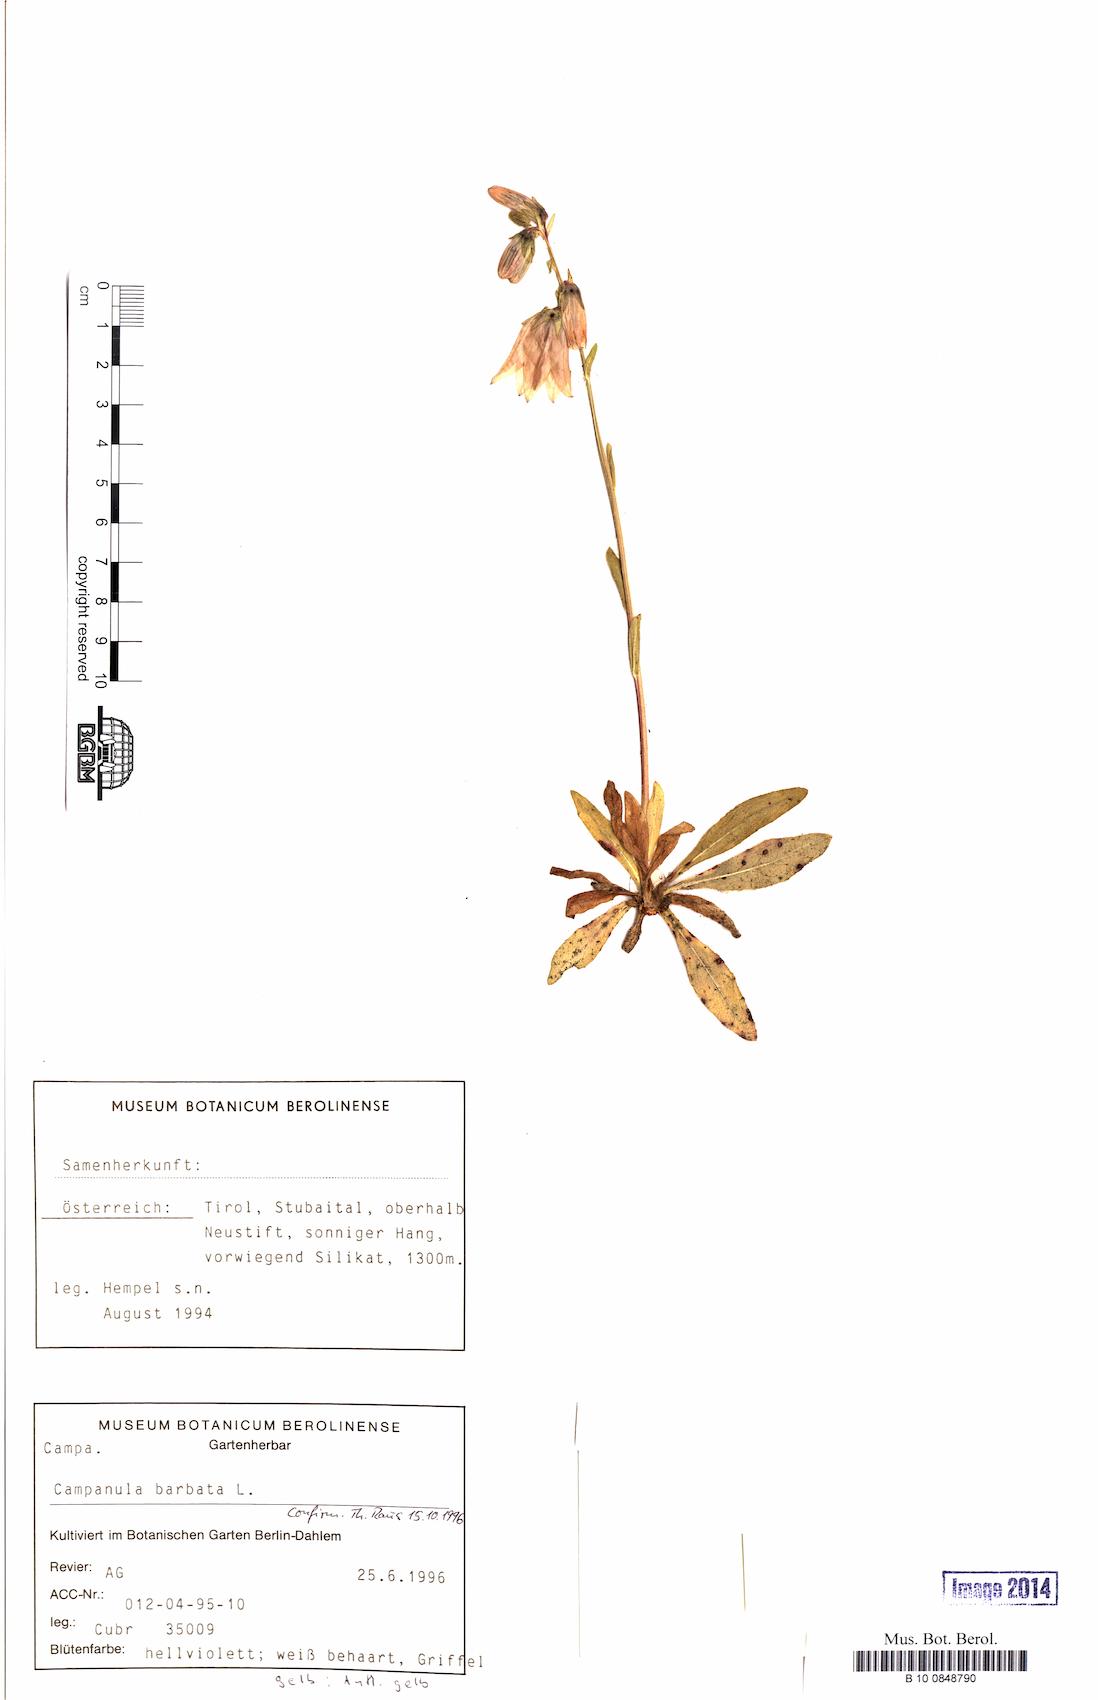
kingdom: Plantae
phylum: Tracheophyta
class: Magnoliopsida
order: Asterales
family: Campanulaceae
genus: Campanula
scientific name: Campanula barbata
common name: Bearded bellflower
